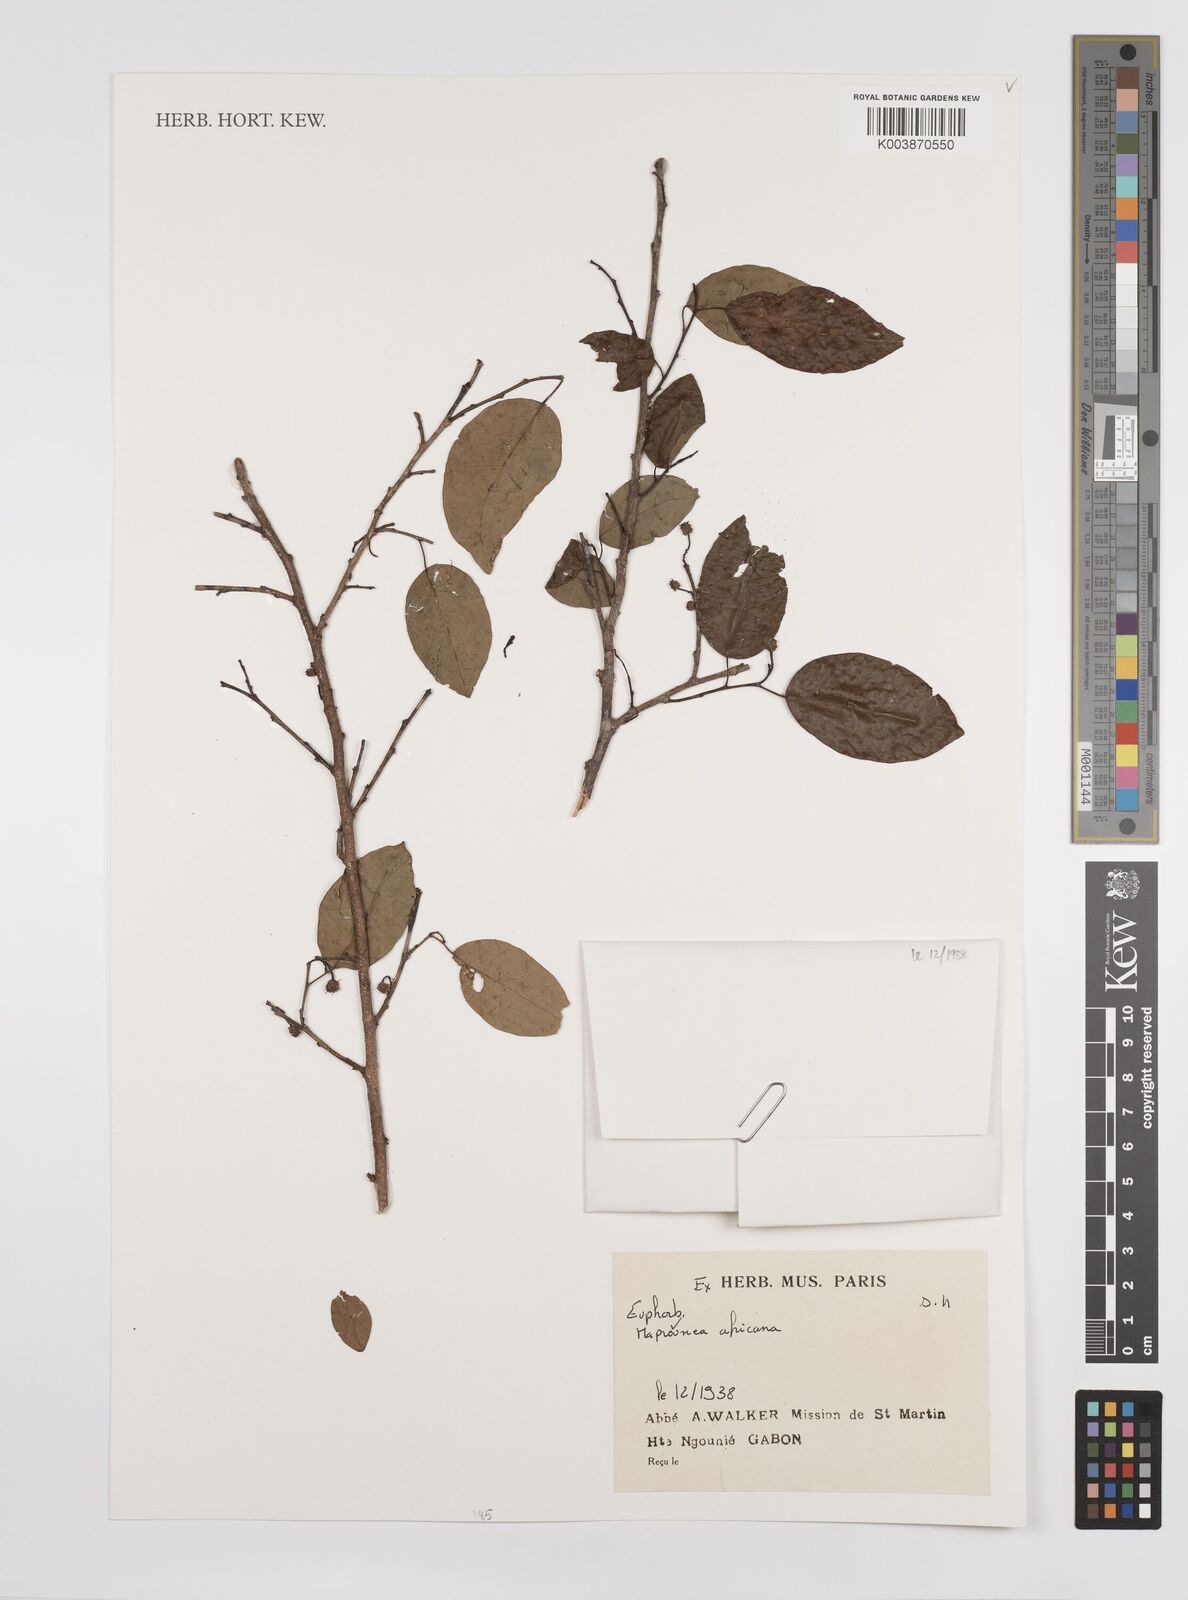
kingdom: Plantae
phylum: Tracheophyta
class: Magnoliopsida
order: Malpighiales
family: Euphorbiaceae
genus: Maprounea
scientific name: Maprounea africana
